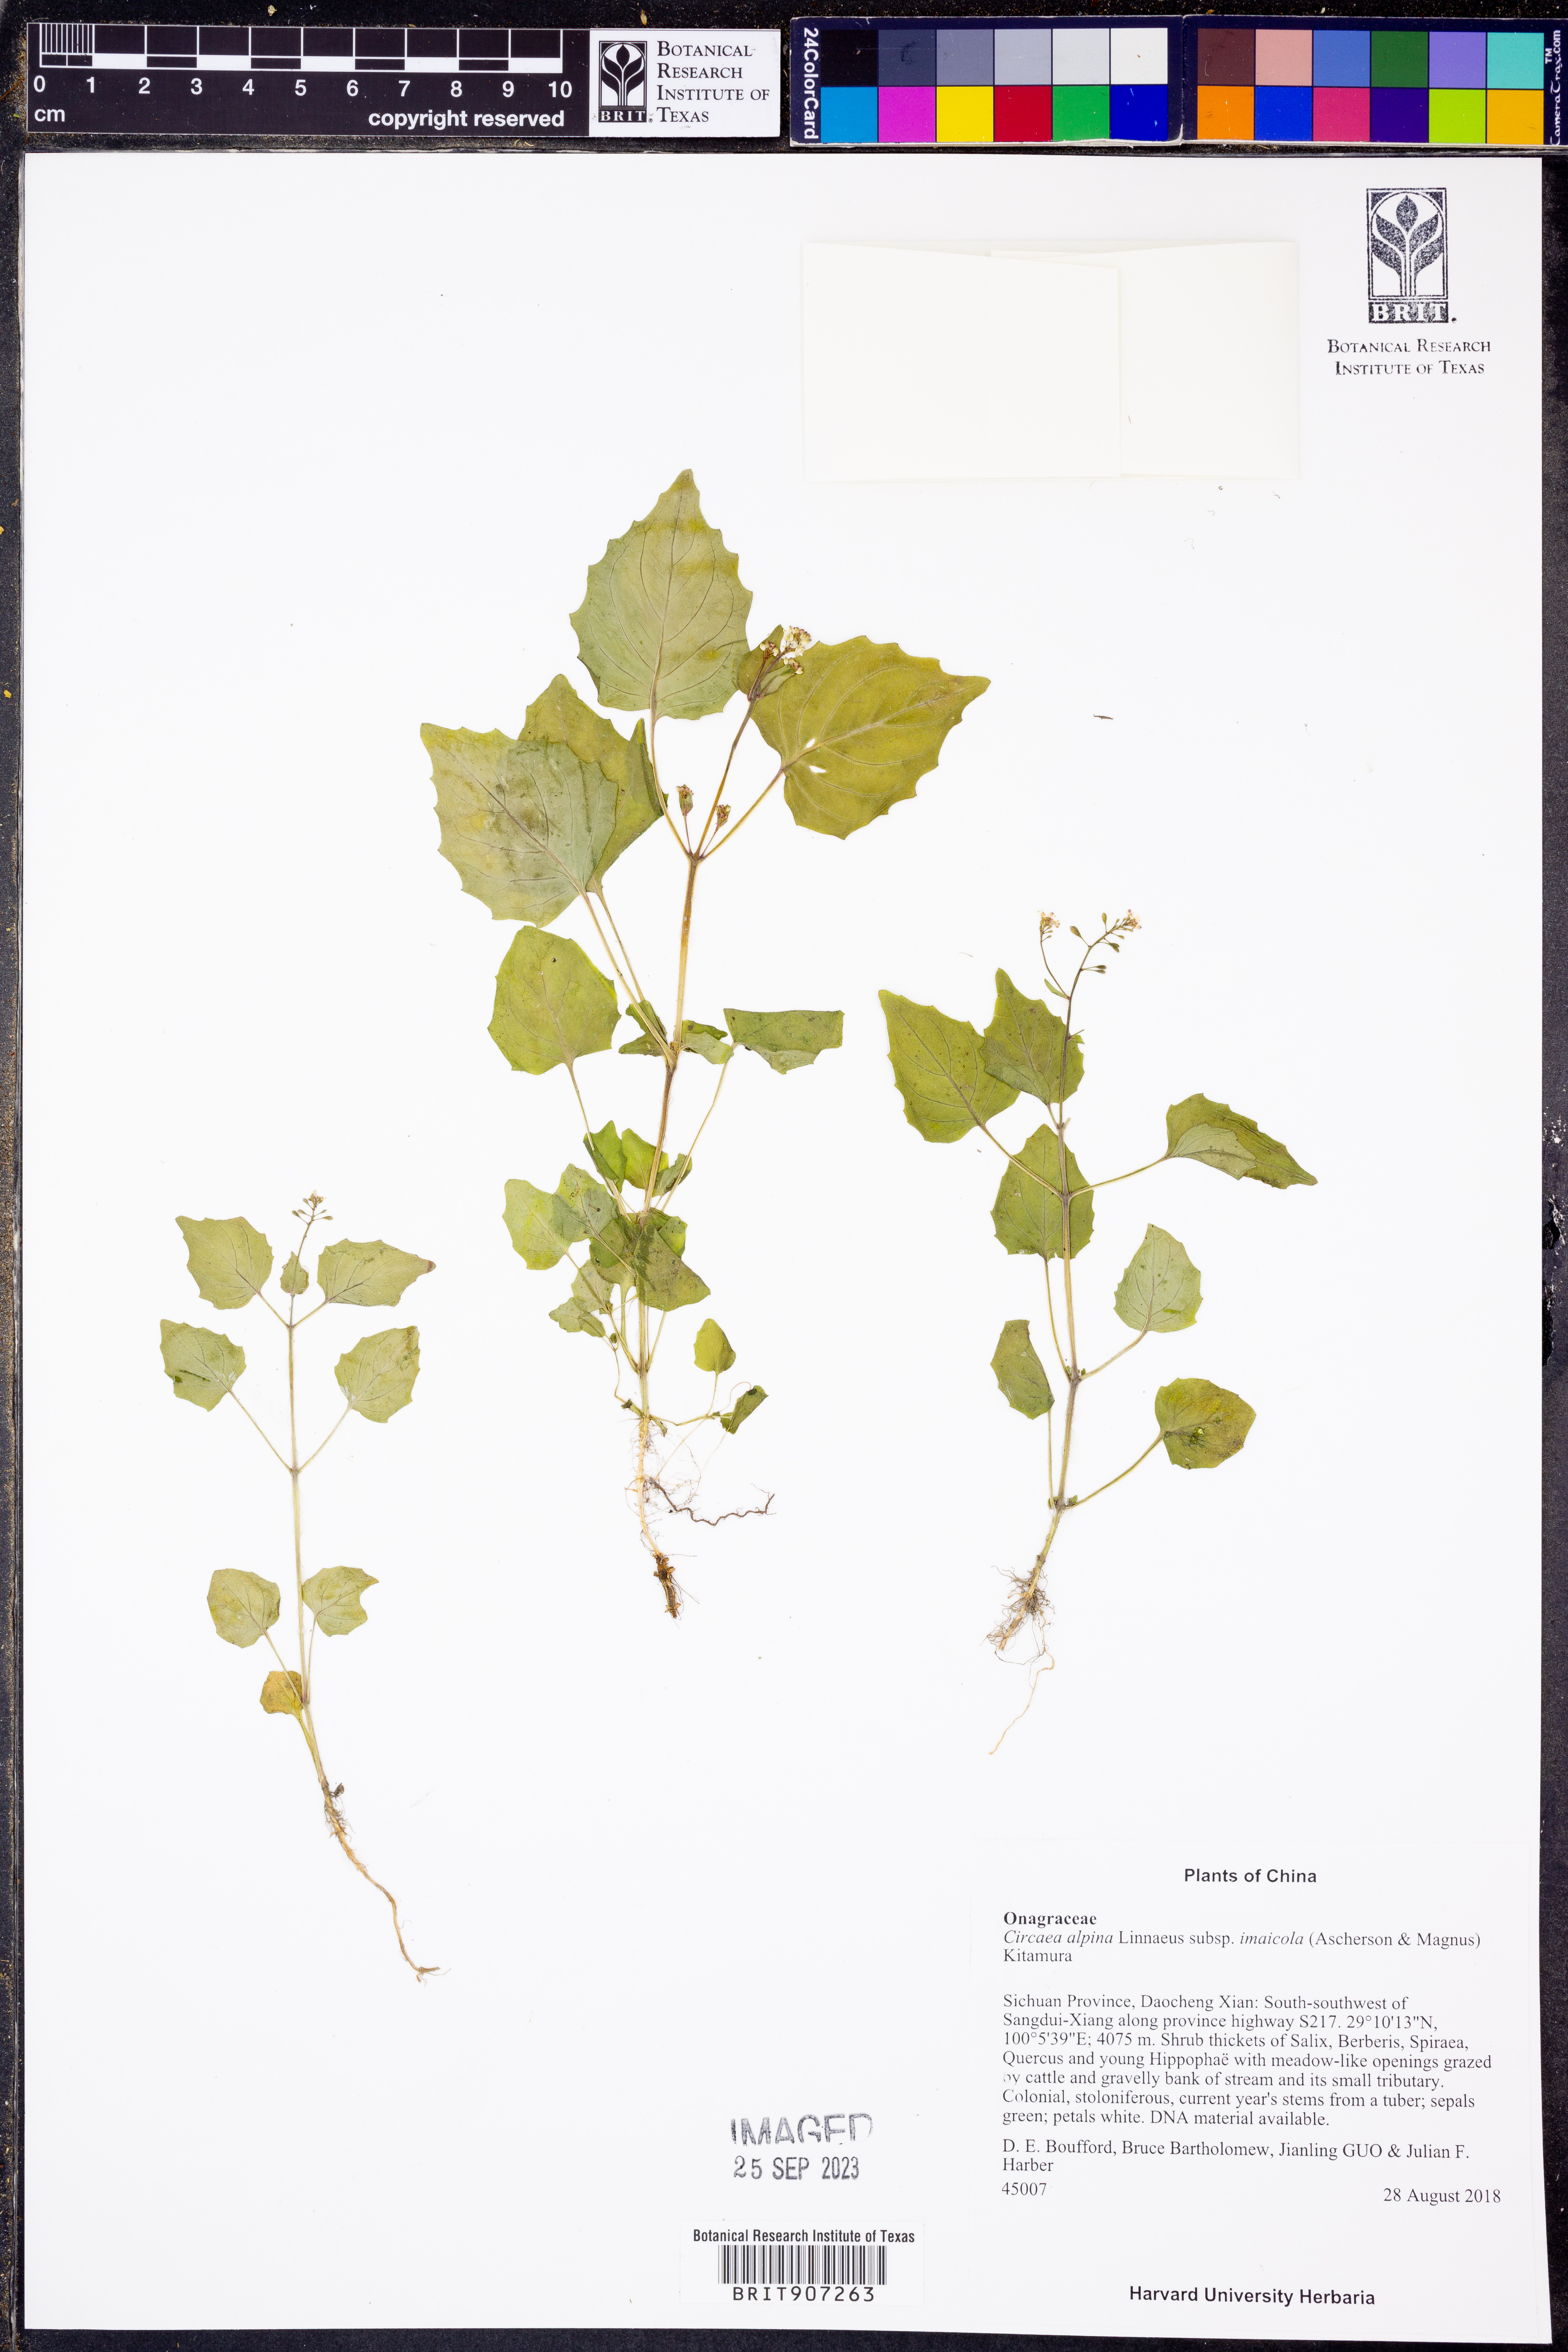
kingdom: Plantae
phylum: Tracheophyta
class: Magnoliopsida
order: Myrtales
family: Onagraceae
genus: Circaea
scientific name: Circaea alpina
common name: Alpine enchanter's-nightshade
